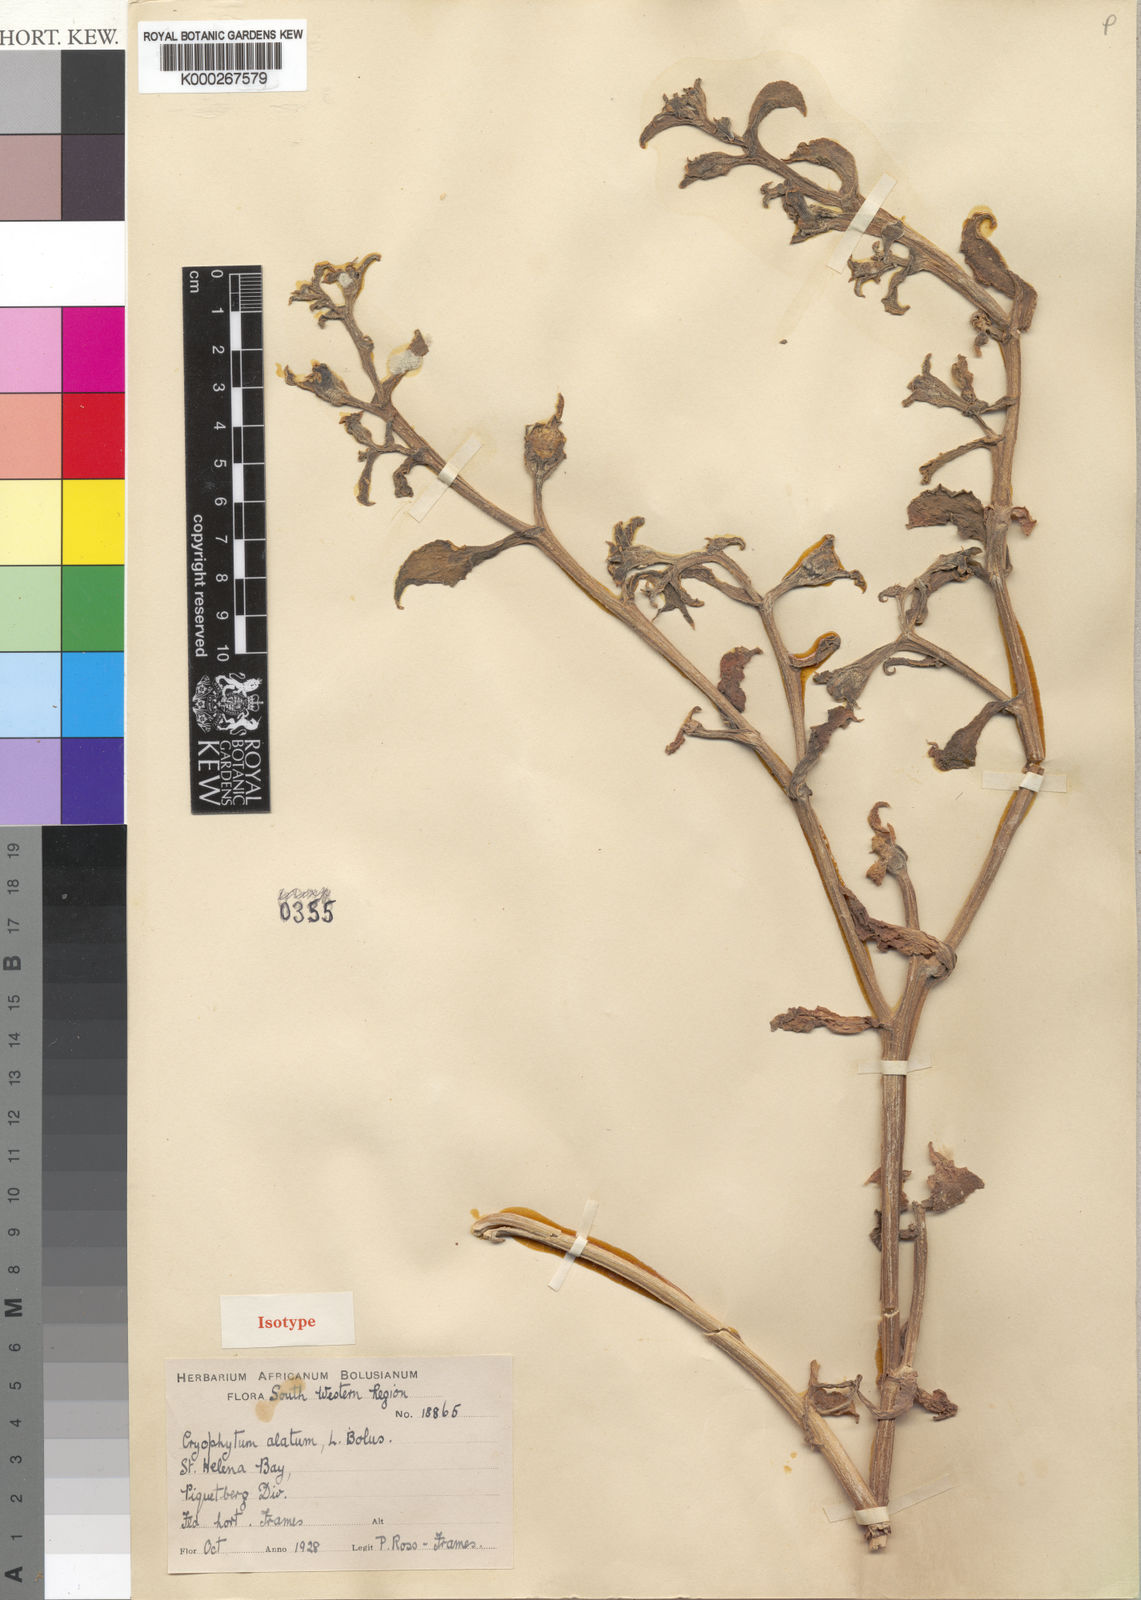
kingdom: Plantae
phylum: Tracheophyta
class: Magnoliopsida
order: Caryophyllales
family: Aizoaceae
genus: Mesembryanthemum
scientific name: Mesembryanthemum guerichianum
